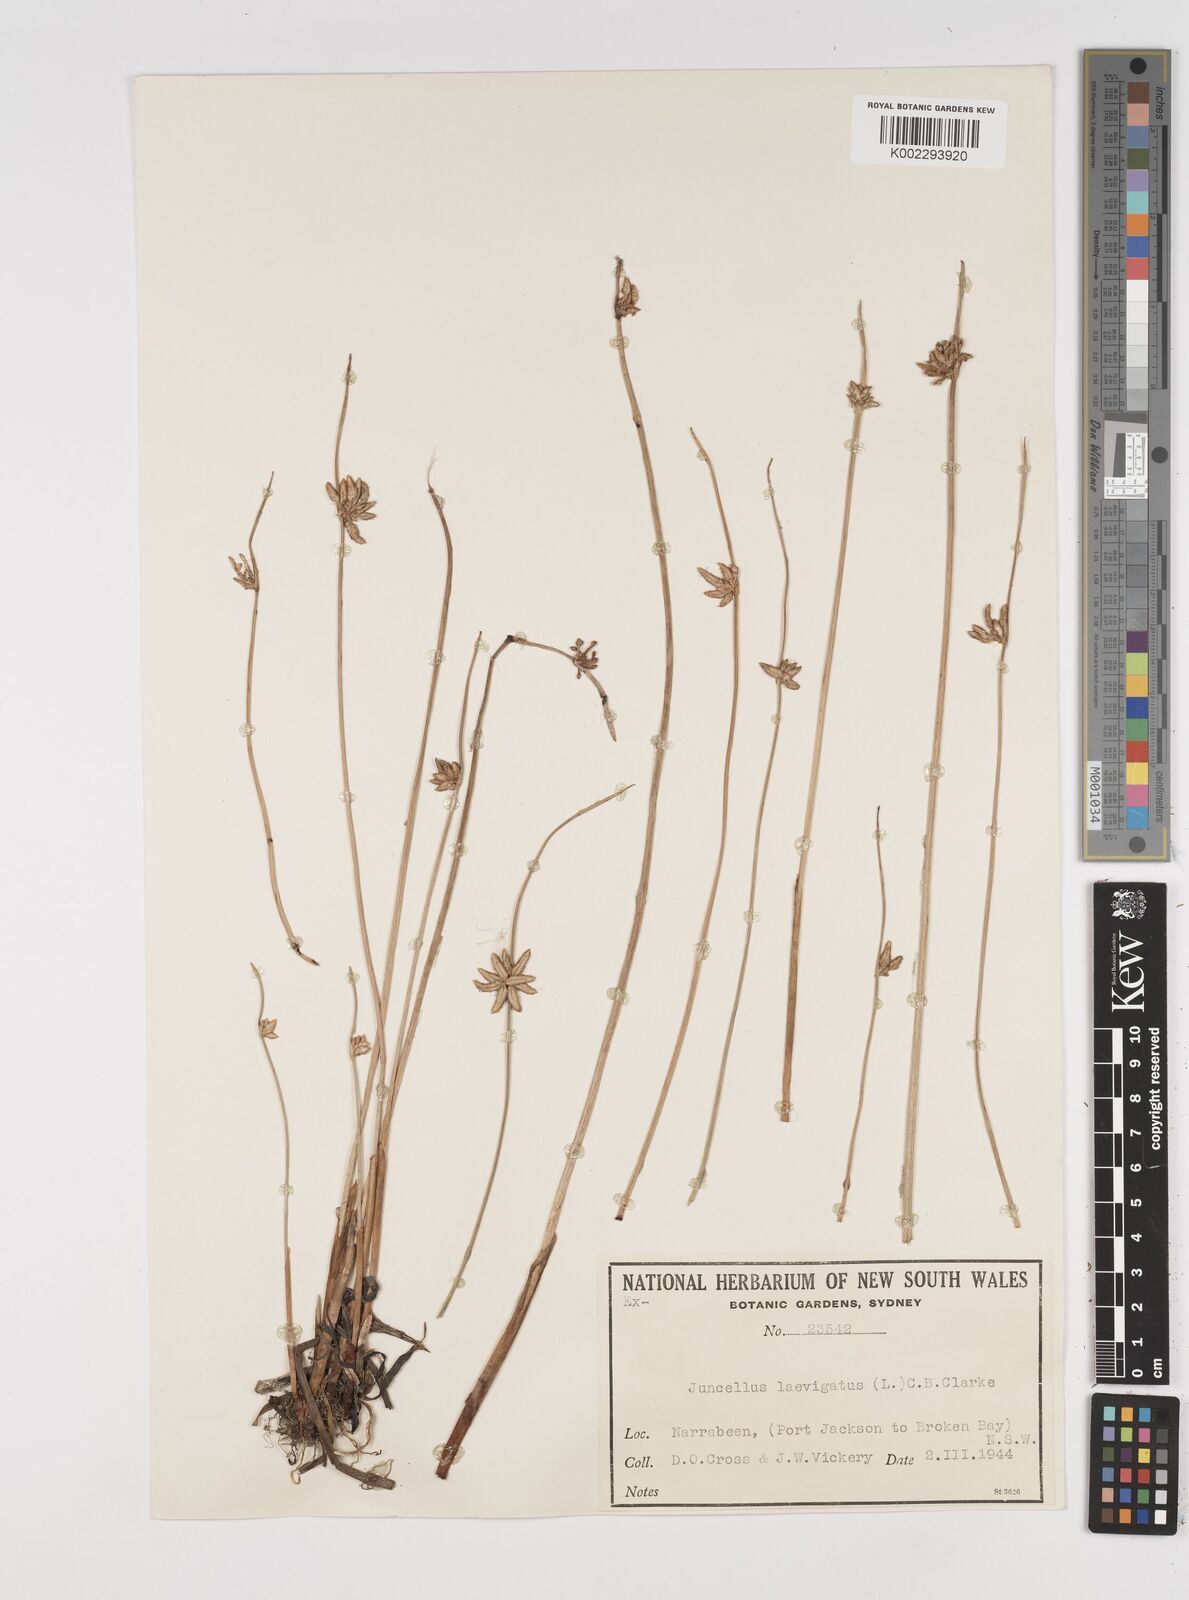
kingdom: Plantae
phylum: Tracheophyta
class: Liliopsida
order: Poales
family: Cyperaceae
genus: Cyperus
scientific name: Cyperus laevigatus
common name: Smooth flat sedge
